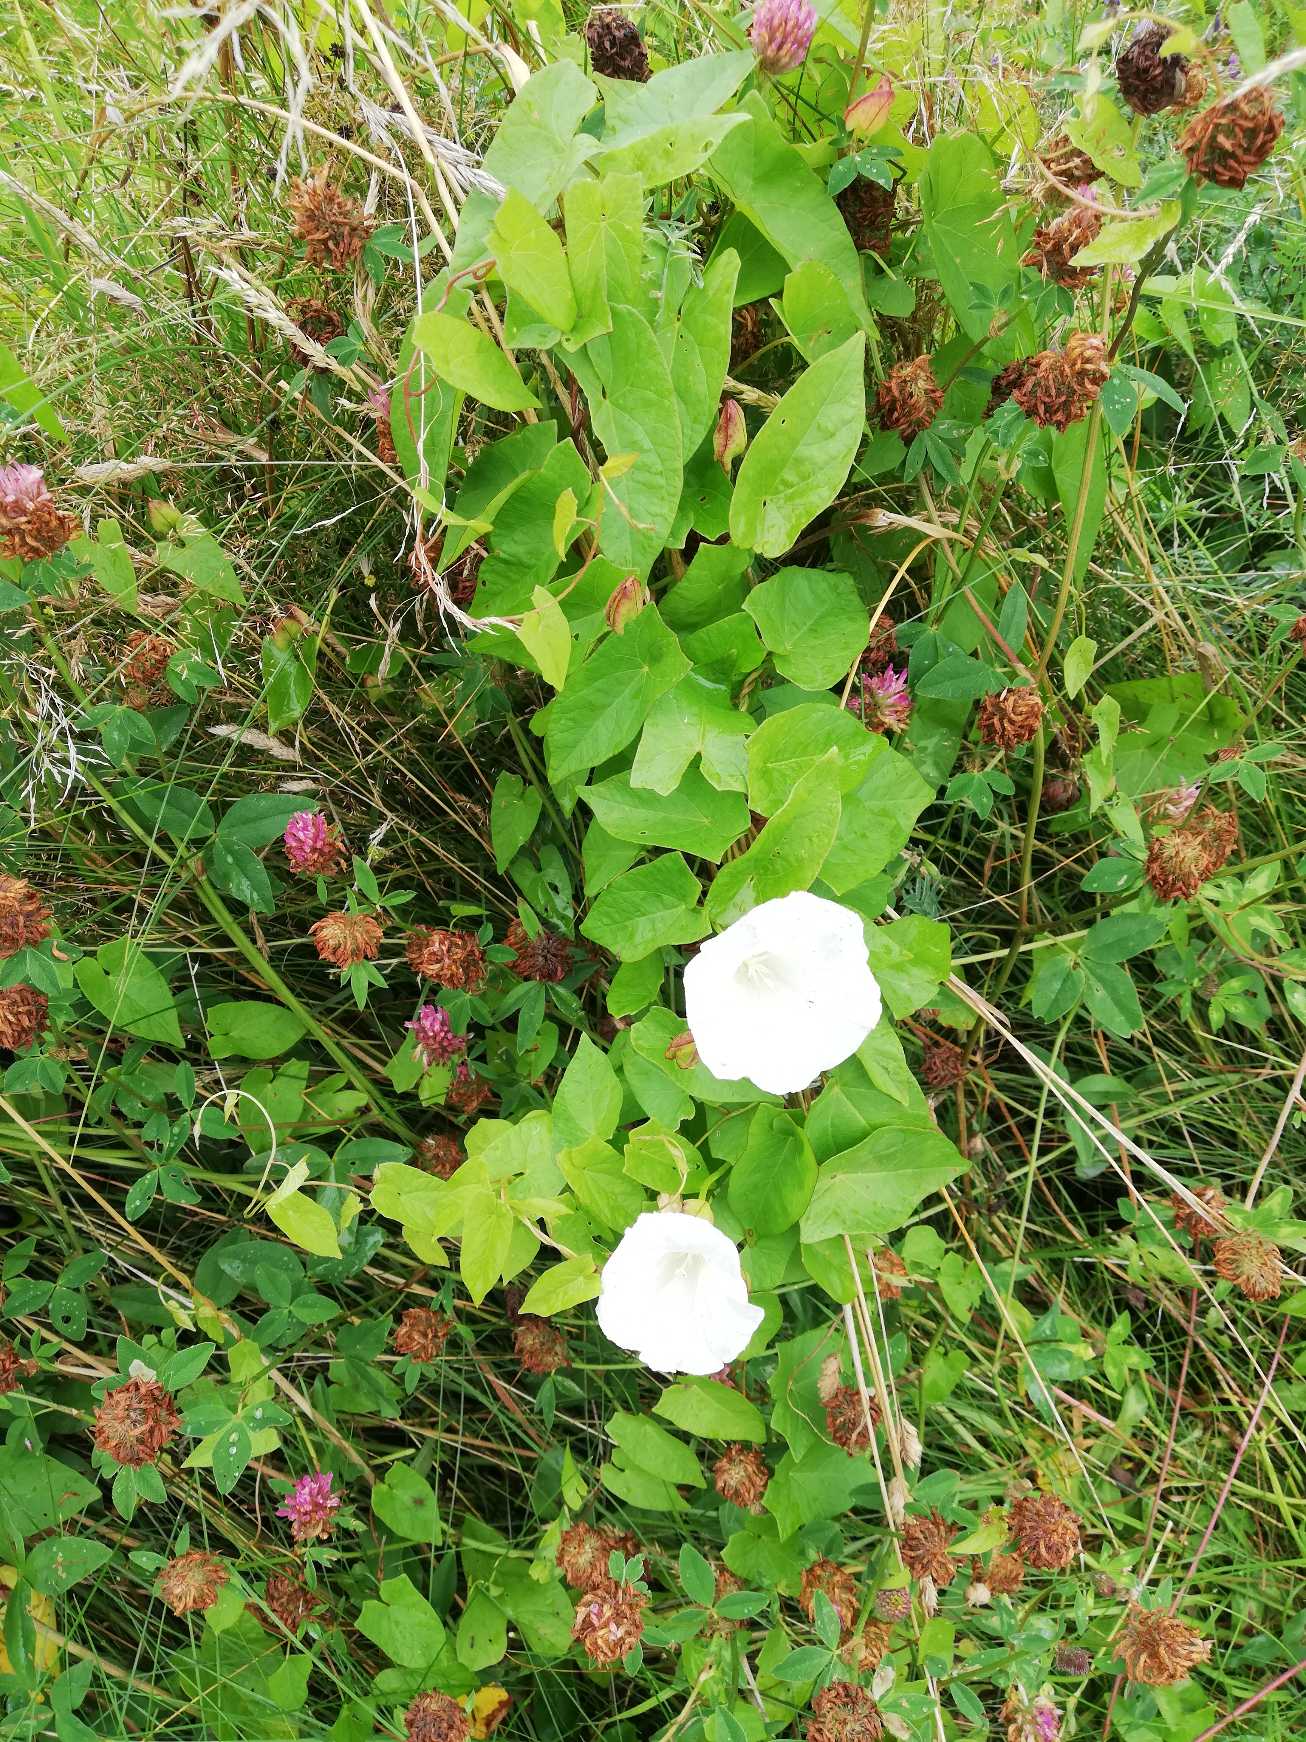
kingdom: Plantae
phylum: Tracheophyta
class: Magnoliopsida
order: Solanales
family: Convolvulaceae
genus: Calystegia
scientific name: Calystegia sepium
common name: Gærde-snerle
